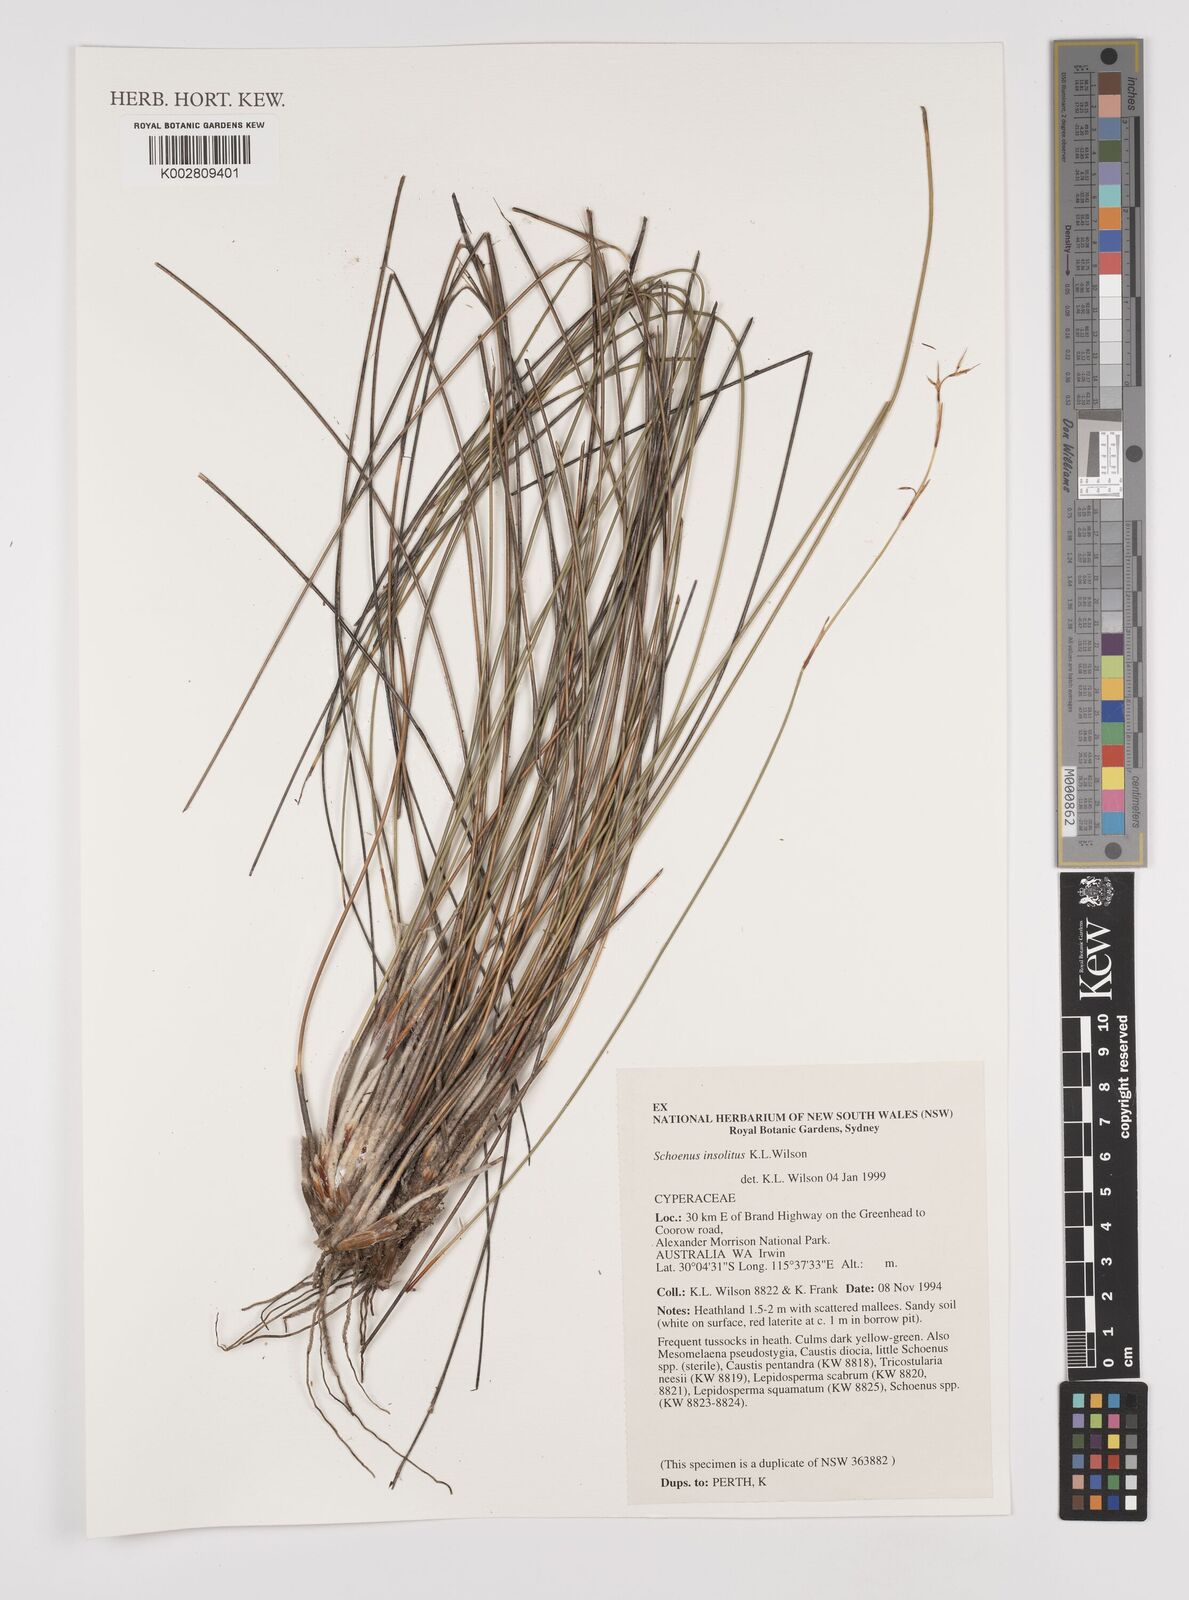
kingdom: Plantae
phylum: Tracheophyta
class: Liliopsida
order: Poales
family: Cyperaceae
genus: Schoenus
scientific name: Schoenus insolitus
